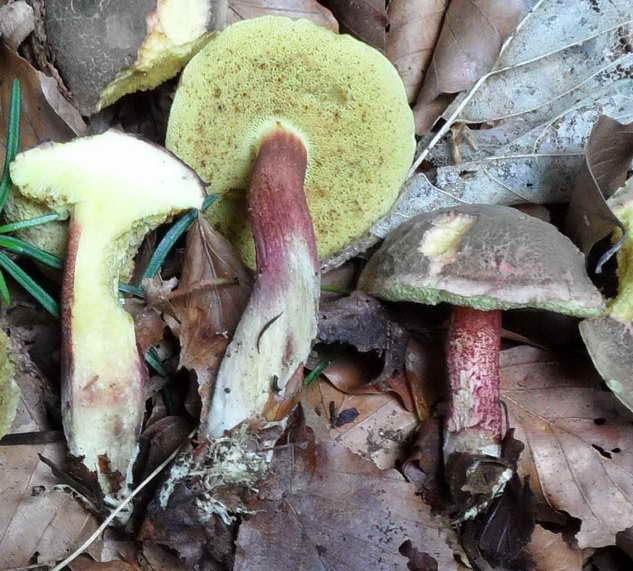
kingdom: Fungi
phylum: Basidiomycota
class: Agaricomycetes
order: Boletales
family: Boletaceae
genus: Xerocomellus
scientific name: Xerocomellus chrysenteron
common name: rødsprukken rørhat
